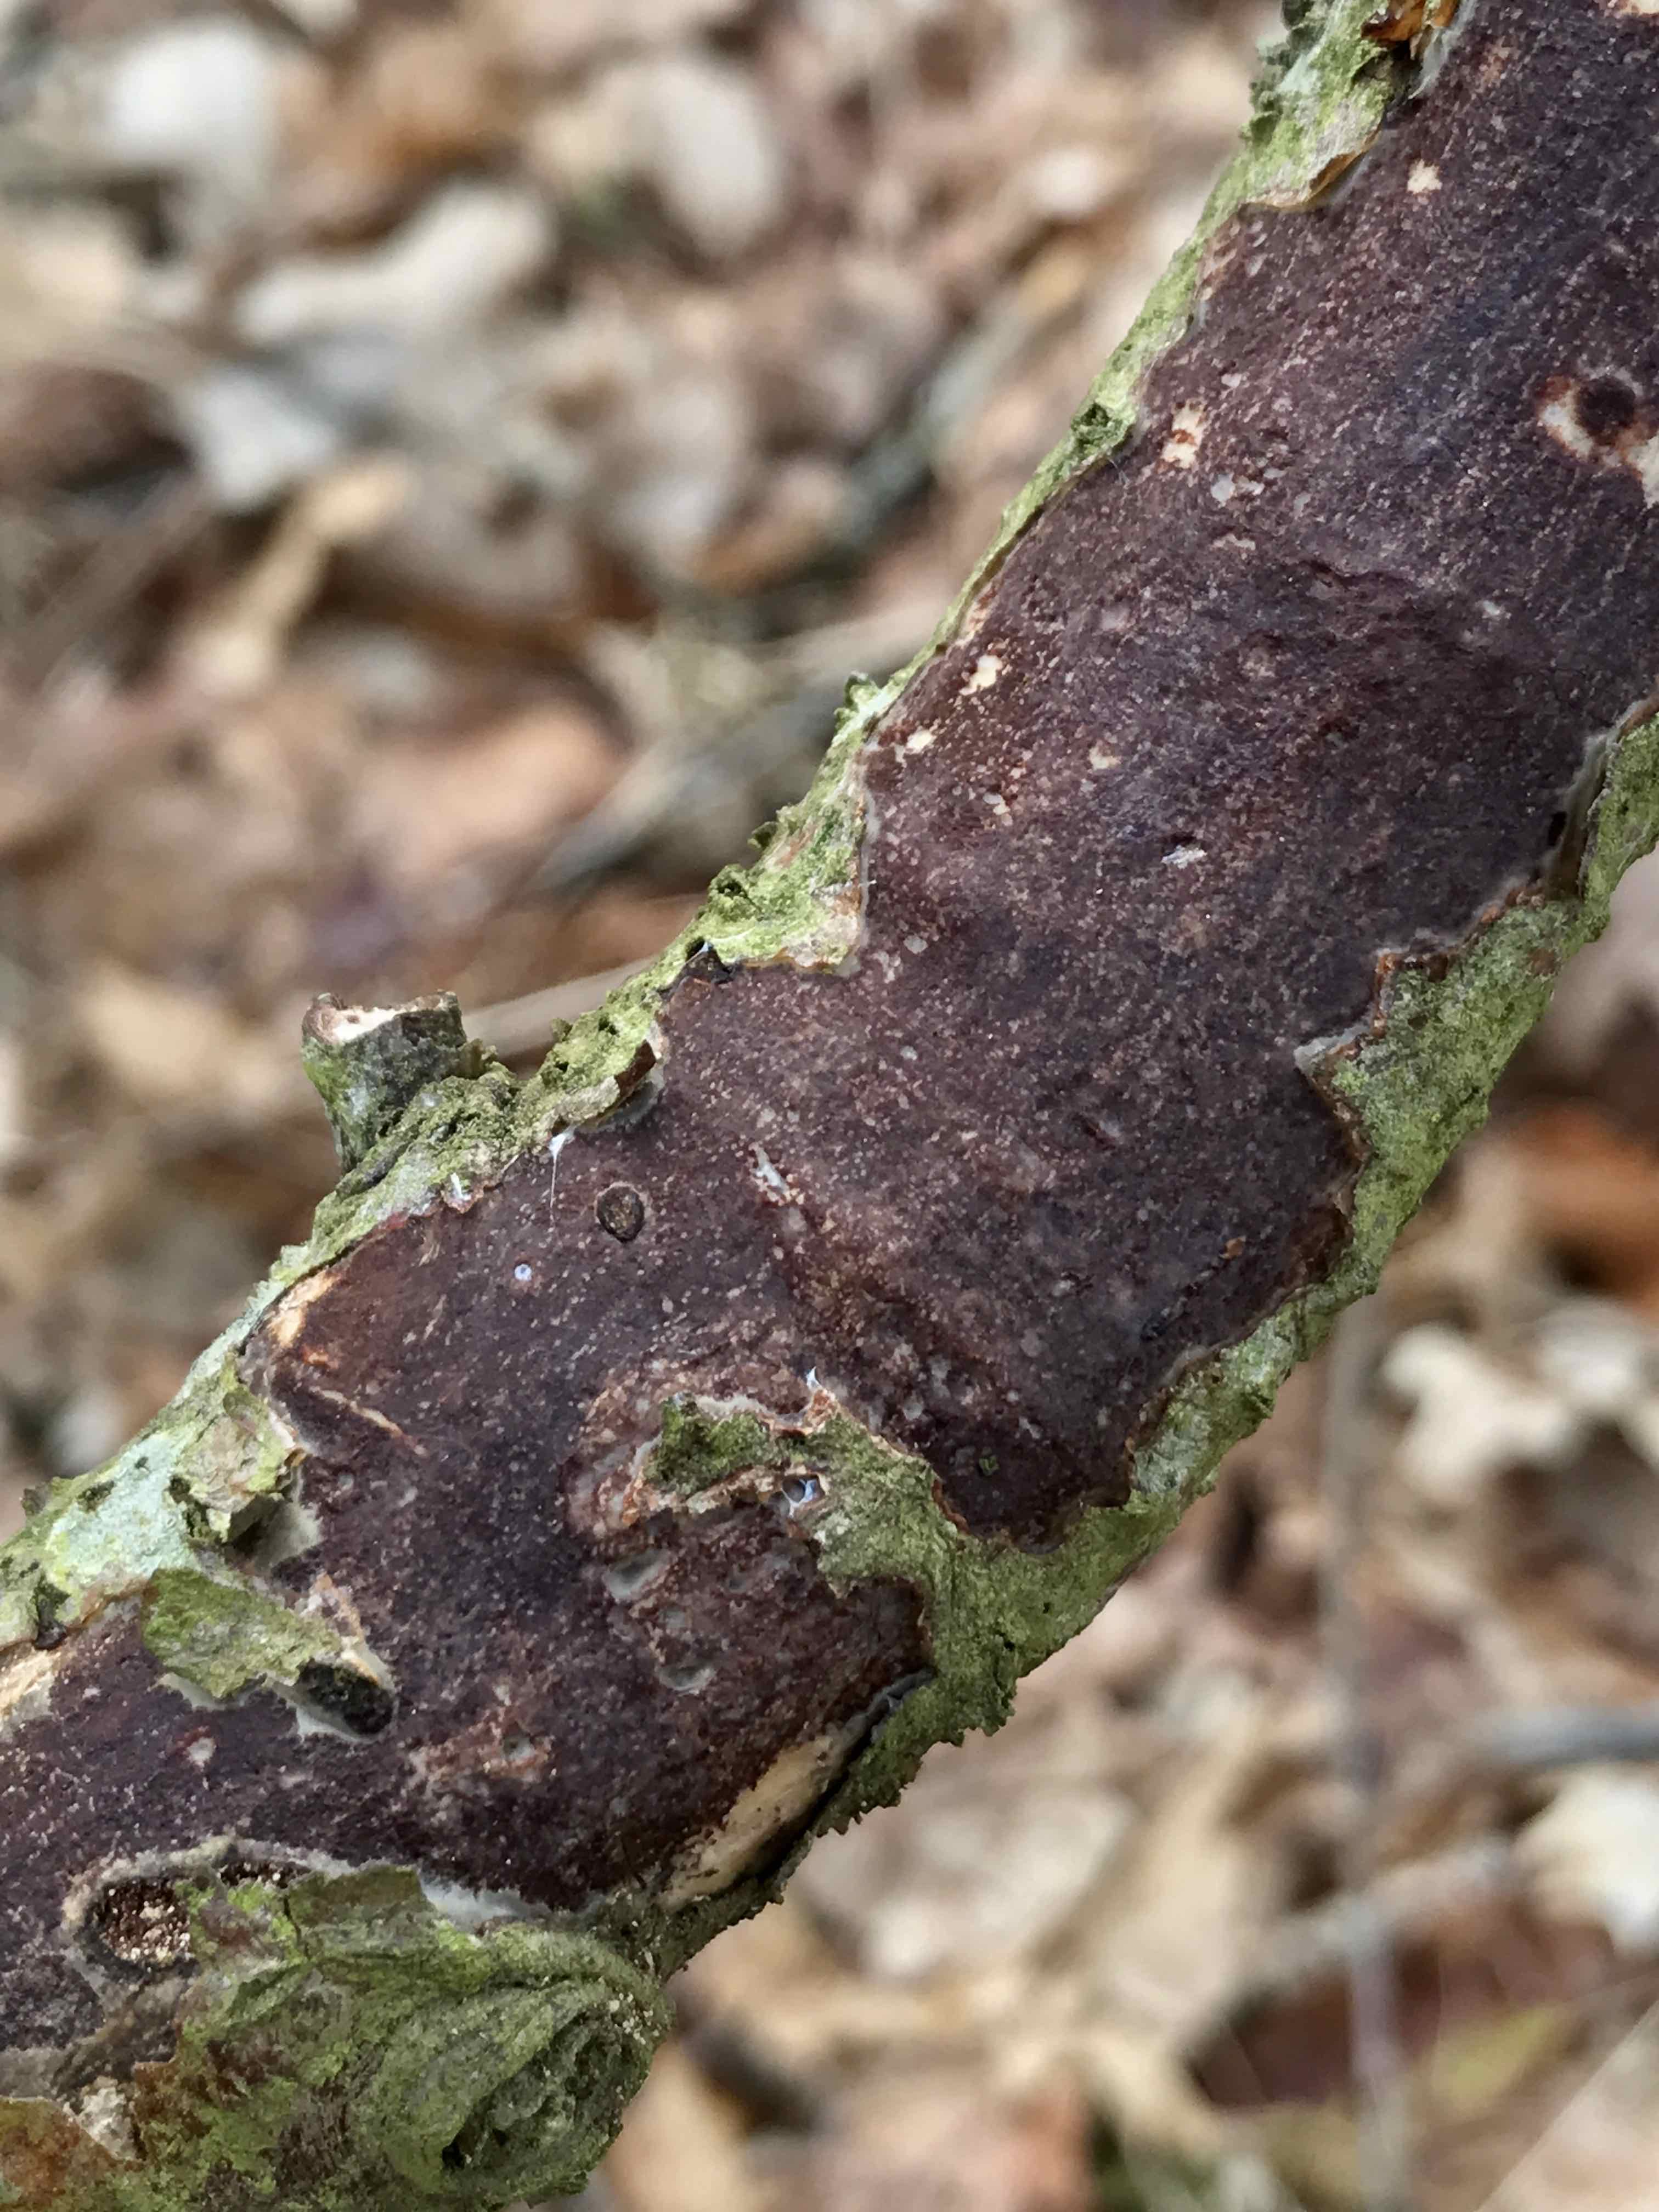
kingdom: Fungi
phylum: Basidiomycota
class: Agaricomycetes
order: Corticiales
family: Vuilleminiaceae
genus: Vuilleminia
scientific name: Vuilleminia comedens
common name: almindelig barksprænger
